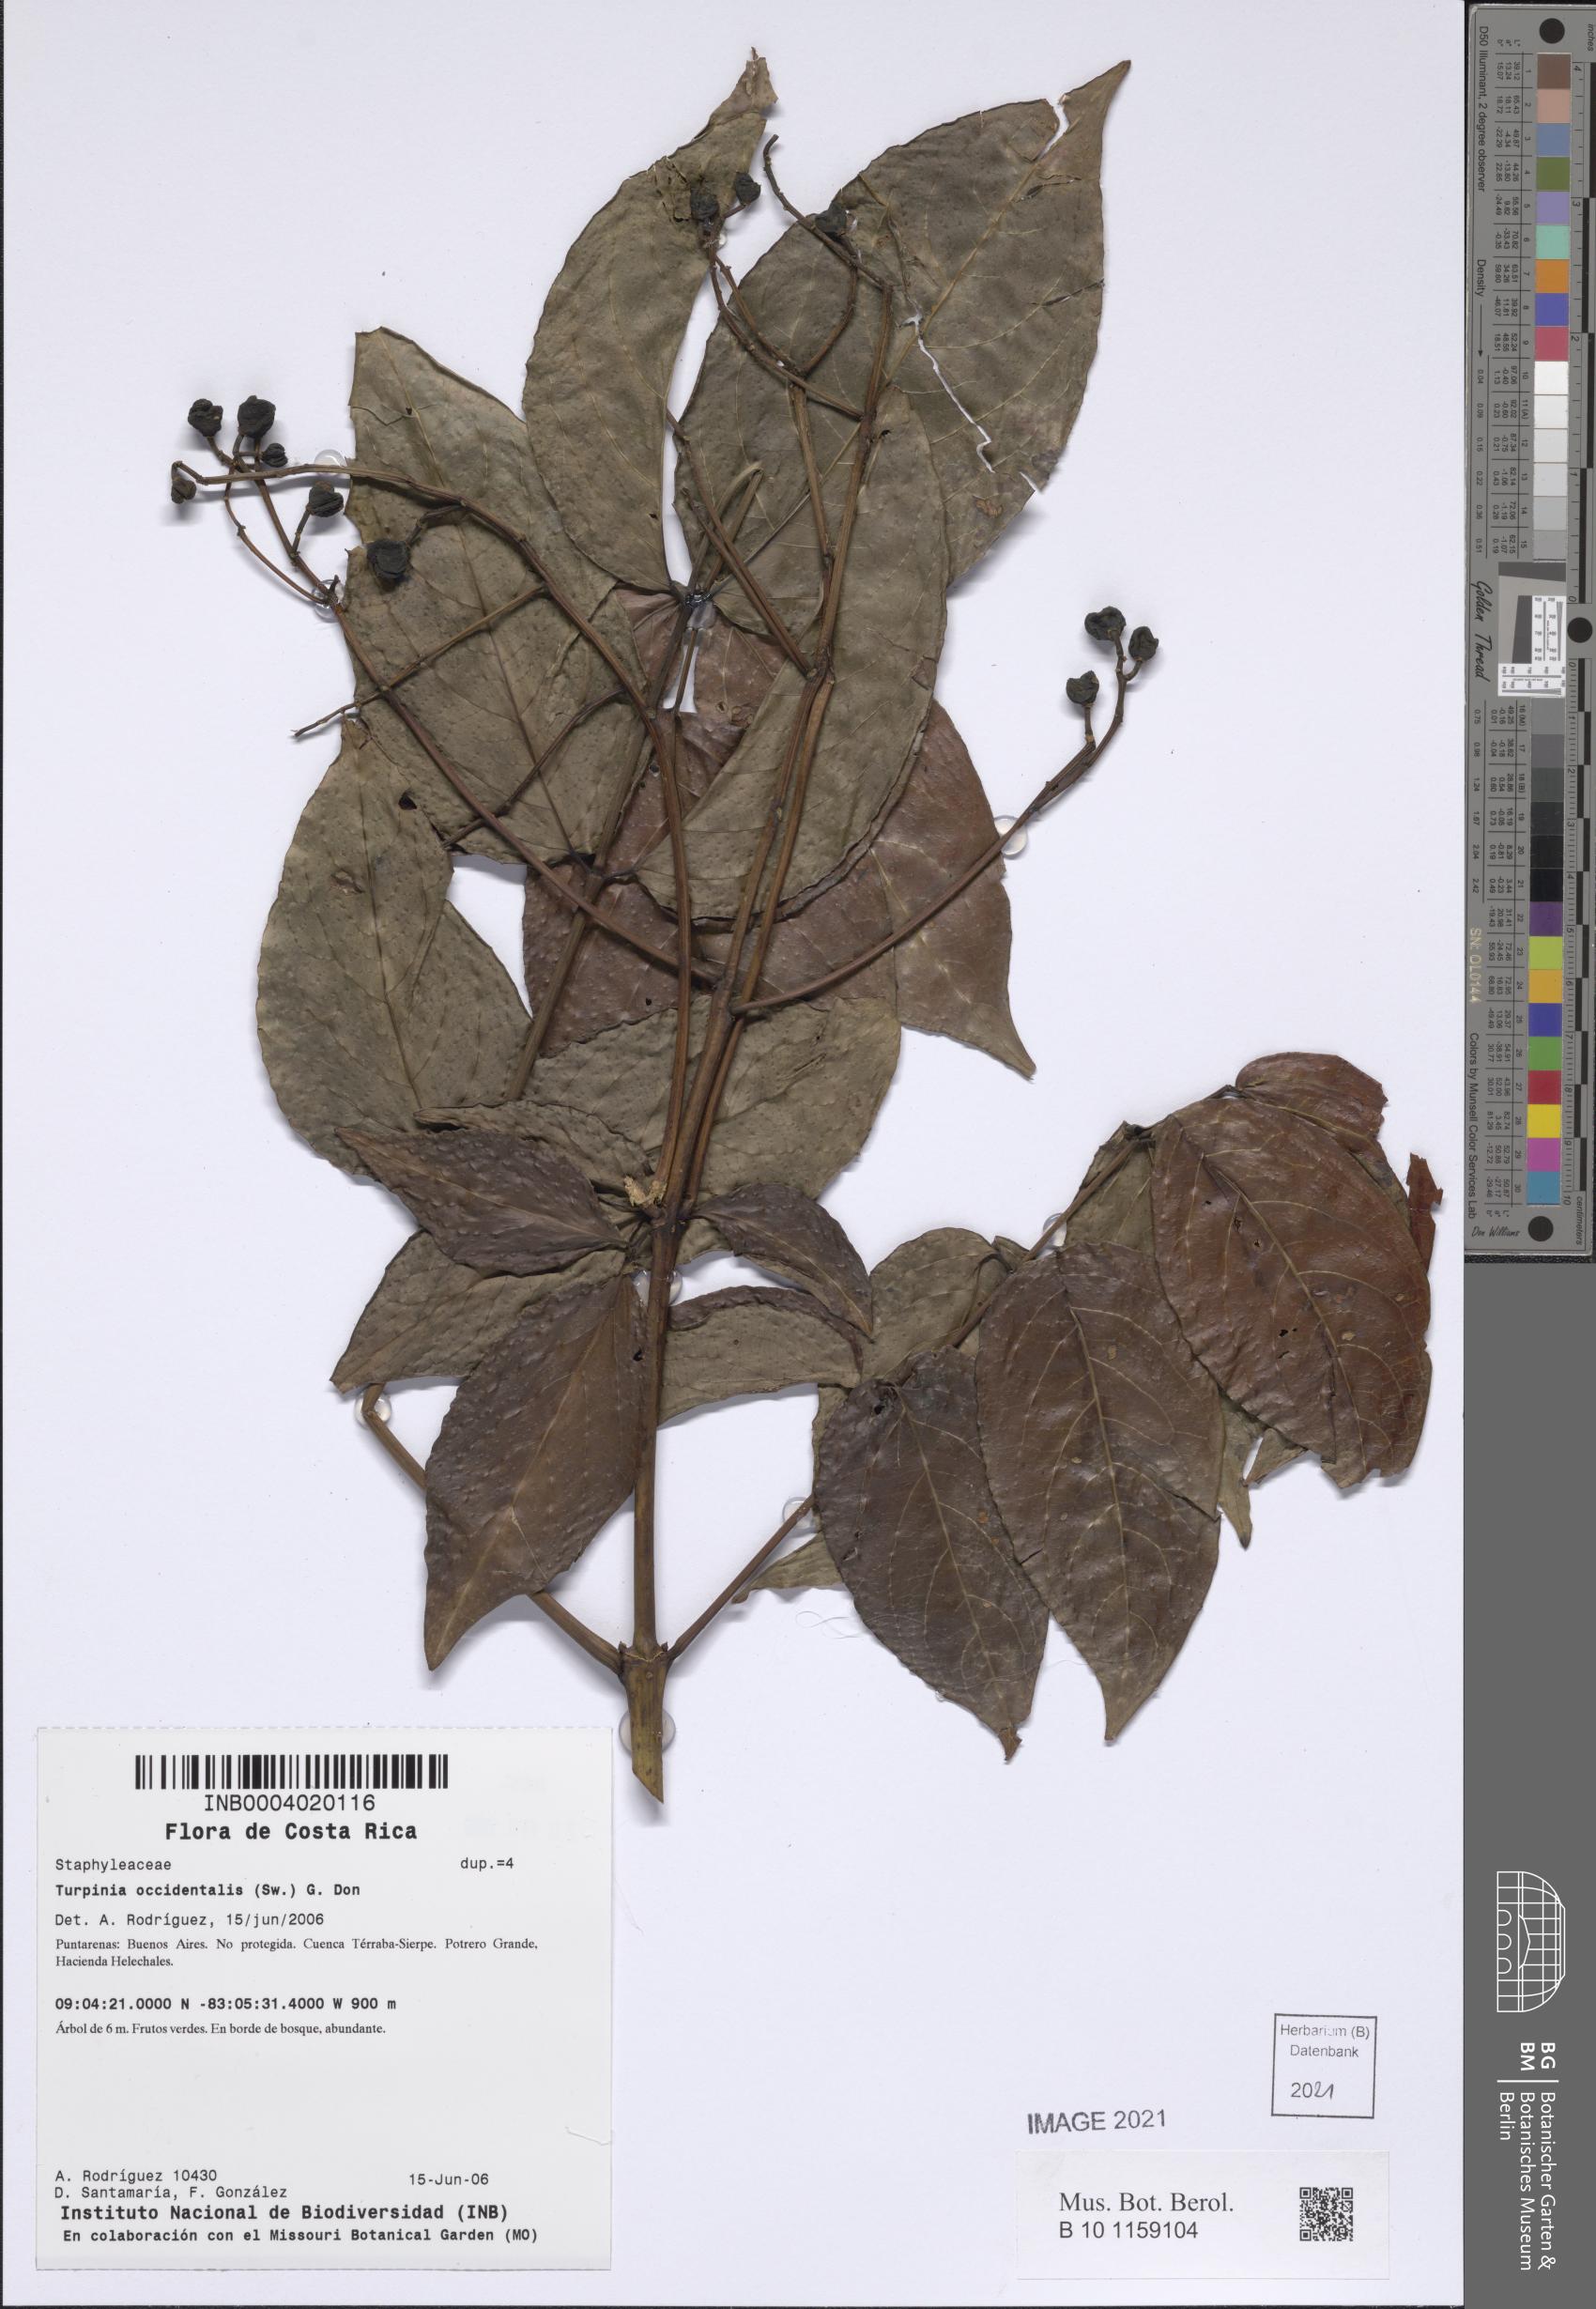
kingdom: Plantae
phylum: Tracheophyta
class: Magnoliopsida
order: Crossosomatales
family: Staphyleaceae
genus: Turpinia
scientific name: Turpinia occidentalis
